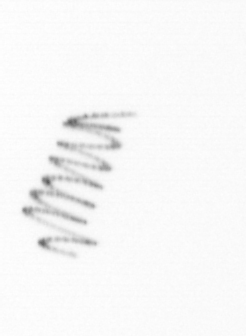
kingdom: Chromista
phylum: Ochrophyta
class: Bacillariophyceae
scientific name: Bacillariophyceae
